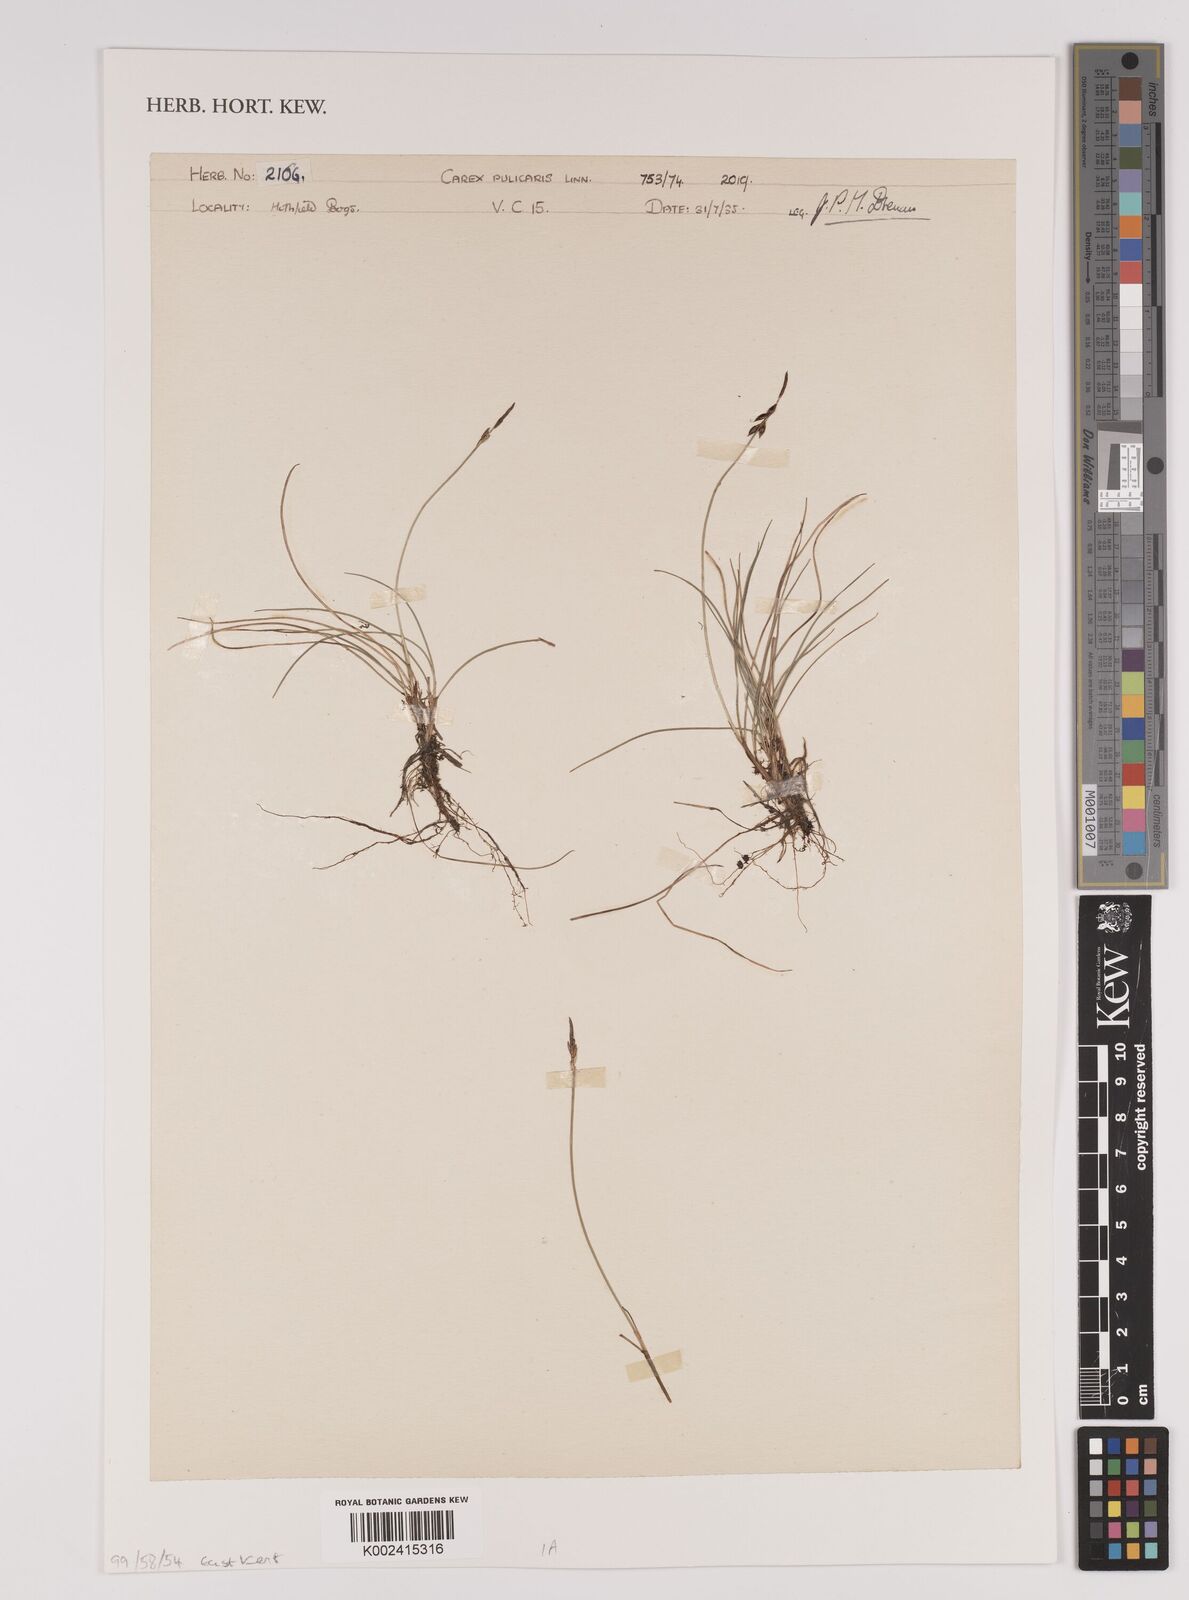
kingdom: Plantae
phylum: Tracheophyta
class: Liliopsida
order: Poales
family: Cyperaceae
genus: Carex
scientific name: Carex pulicaris
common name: Flea sedge
